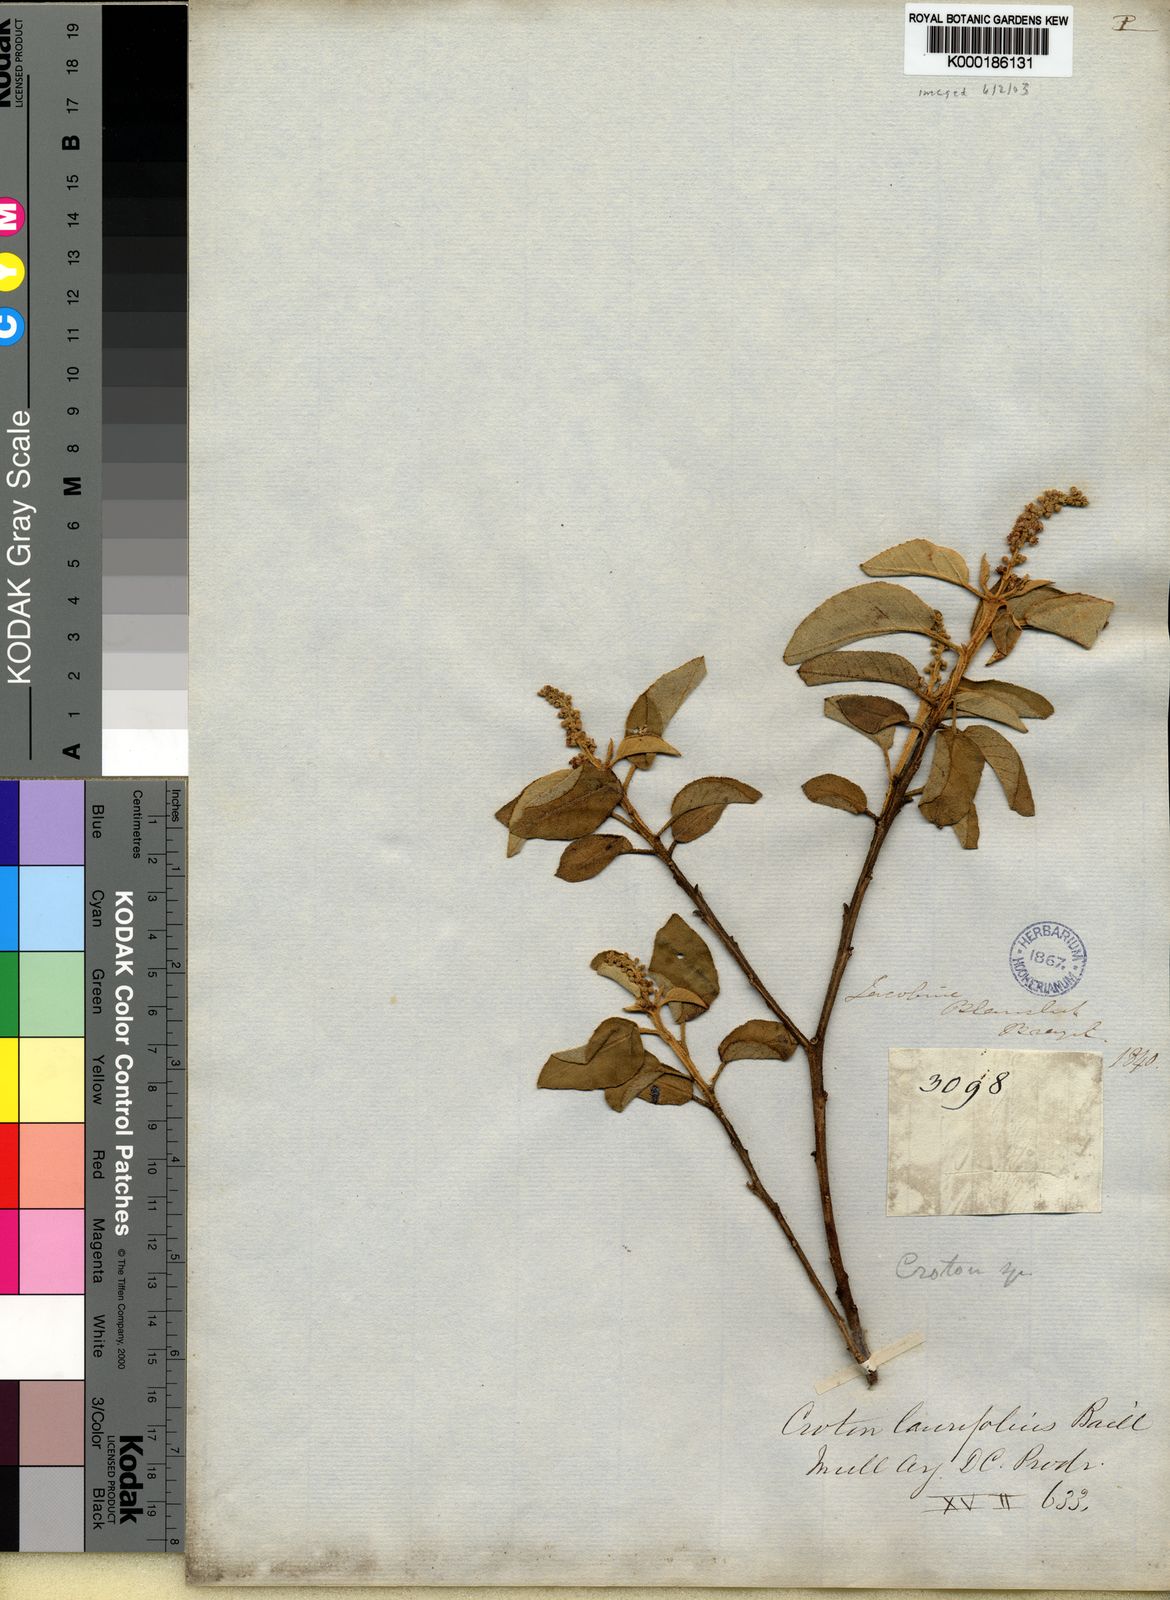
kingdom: Plantae
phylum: Tracheophyta
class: Magnoliopsida
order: Malpighiales
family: Euphorbiaceae
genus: Croton
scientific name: Croton
